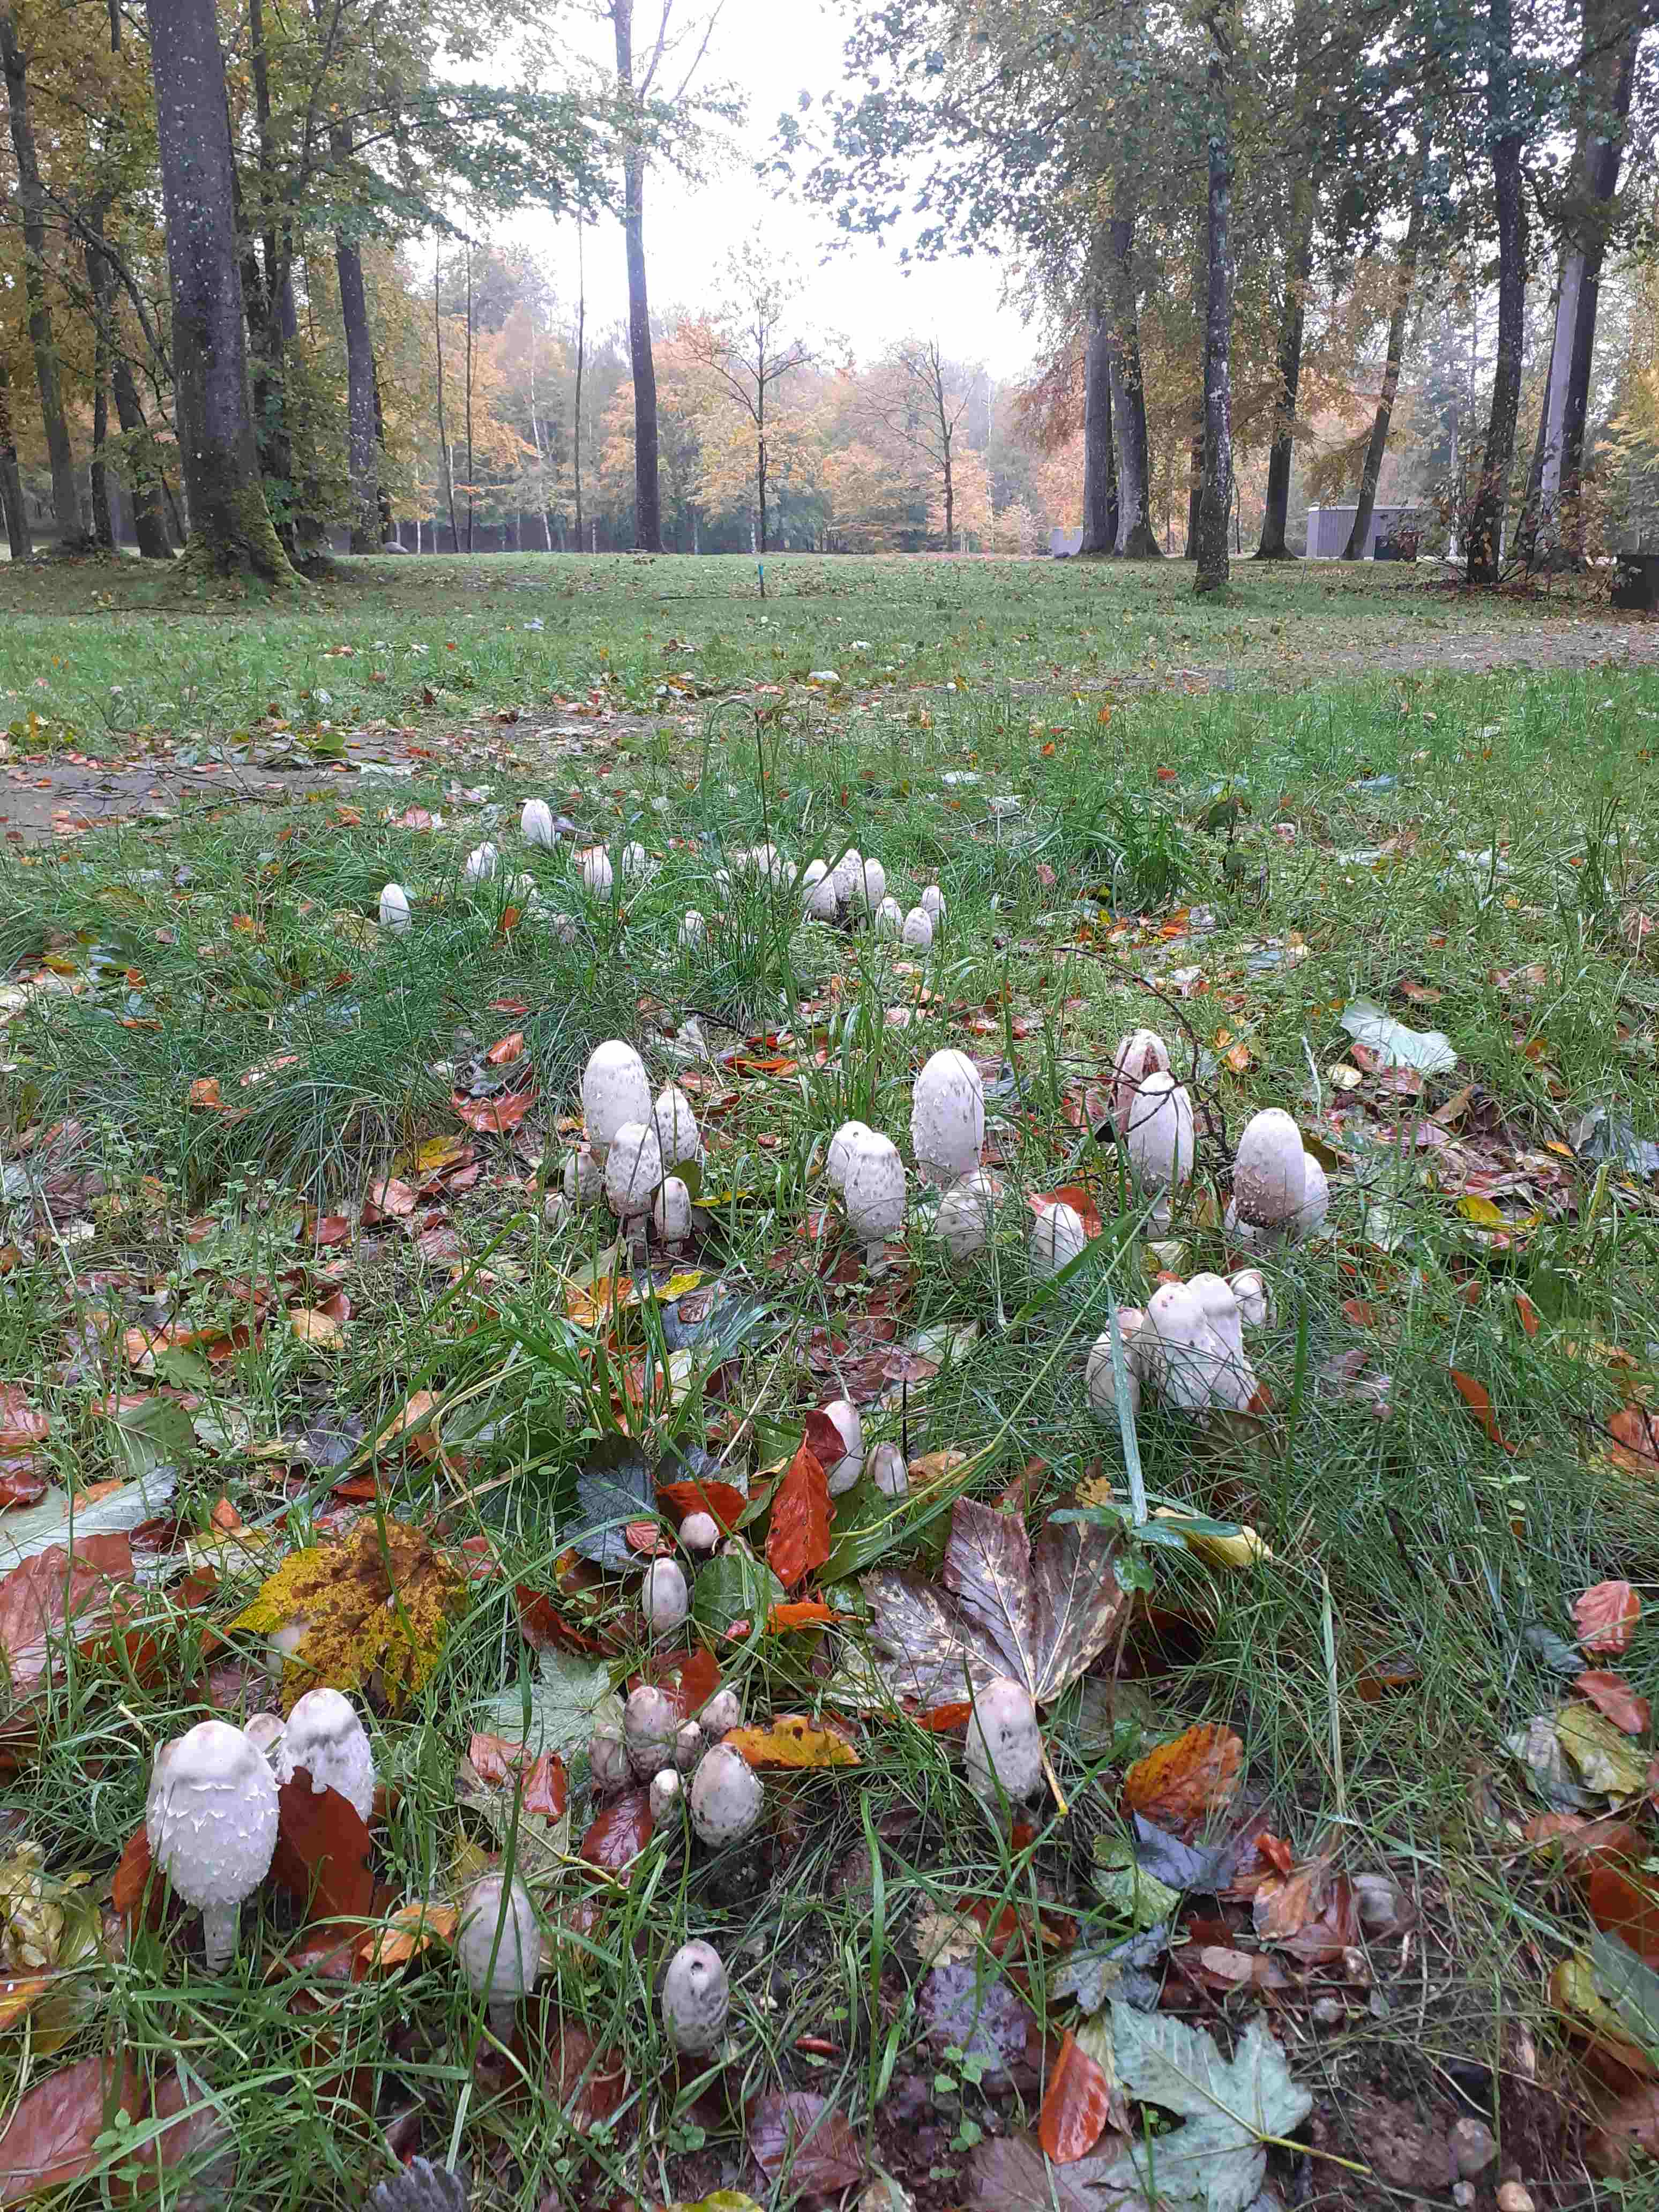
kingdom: Fungi
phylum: Basidiomycota
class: Agaricomycetes
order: Agaricales
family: Agaricaceae
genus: Coprinus
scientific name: Coprinus comatus
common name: stor parykhat
